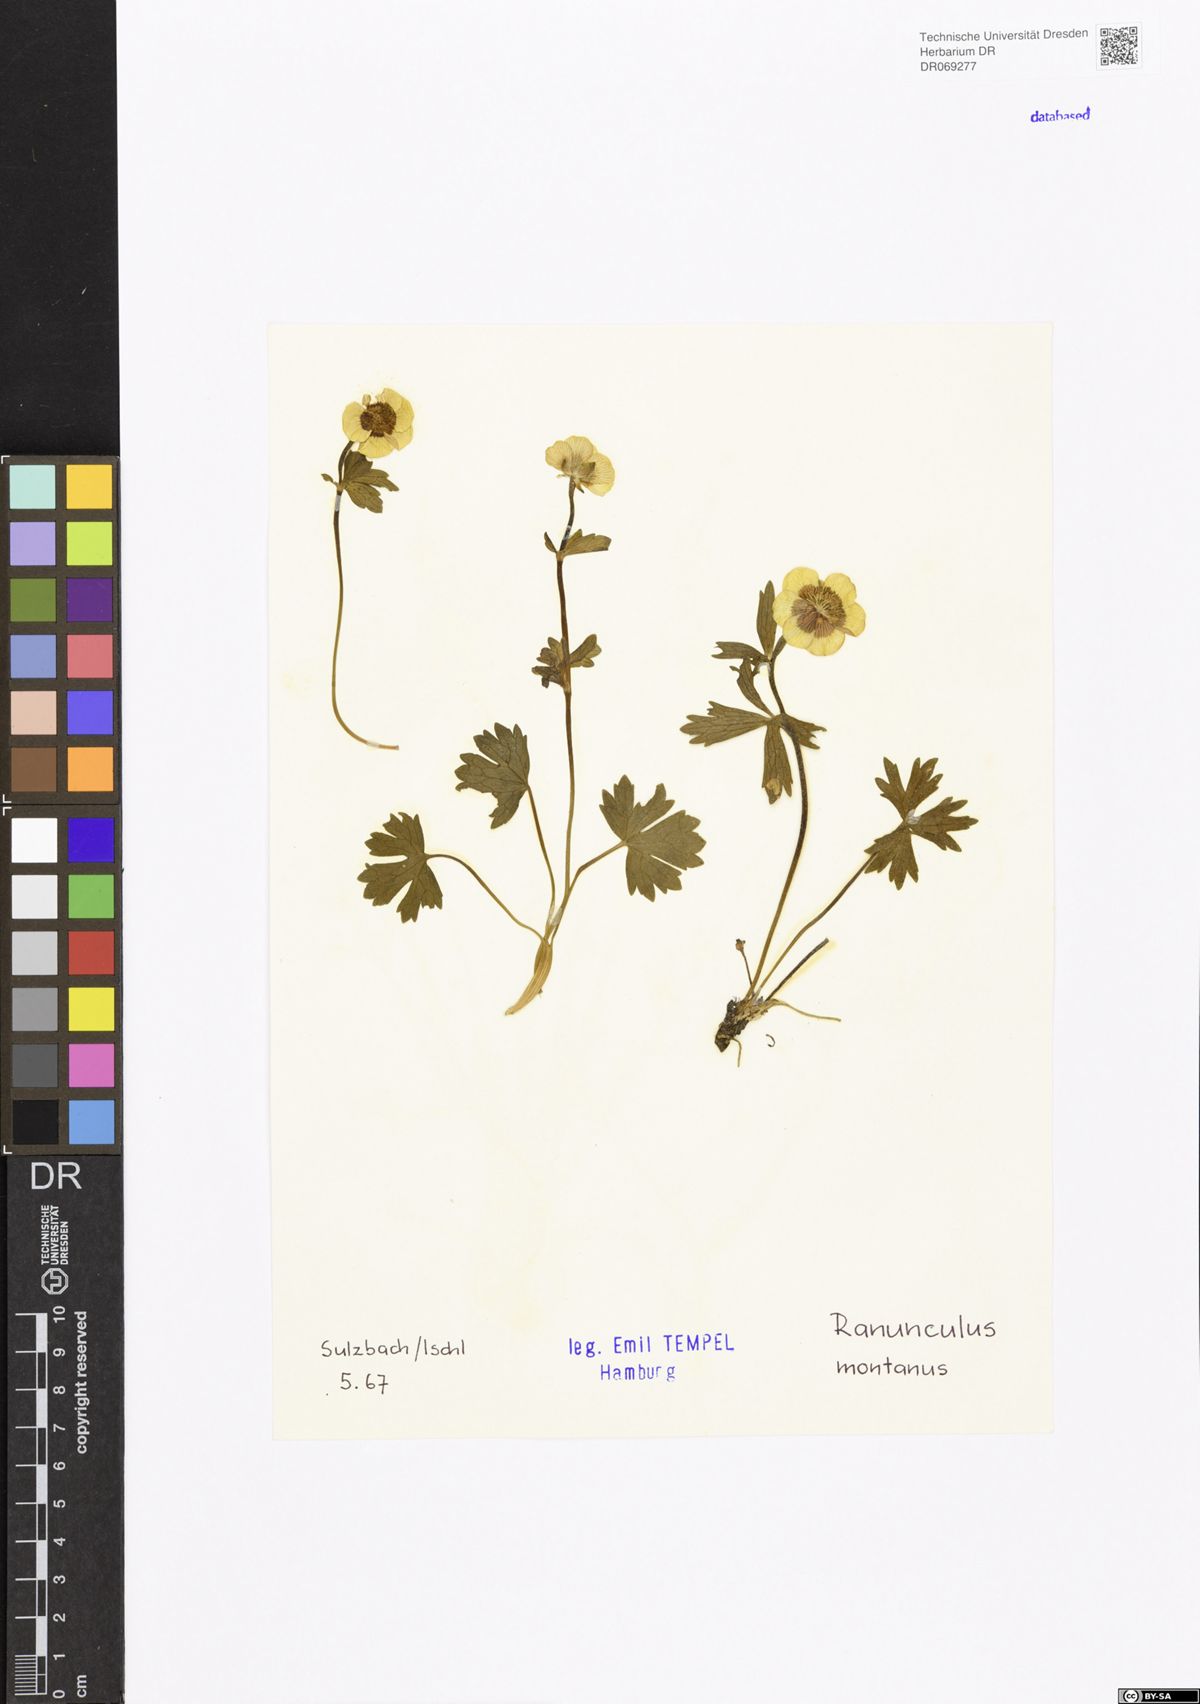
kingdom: Plantae
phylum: Tracheophyta
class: Magnoliopsida
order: Ranunculales
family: Ranunculaceae
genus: Ranunculus
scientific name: Ranunculus montanus
